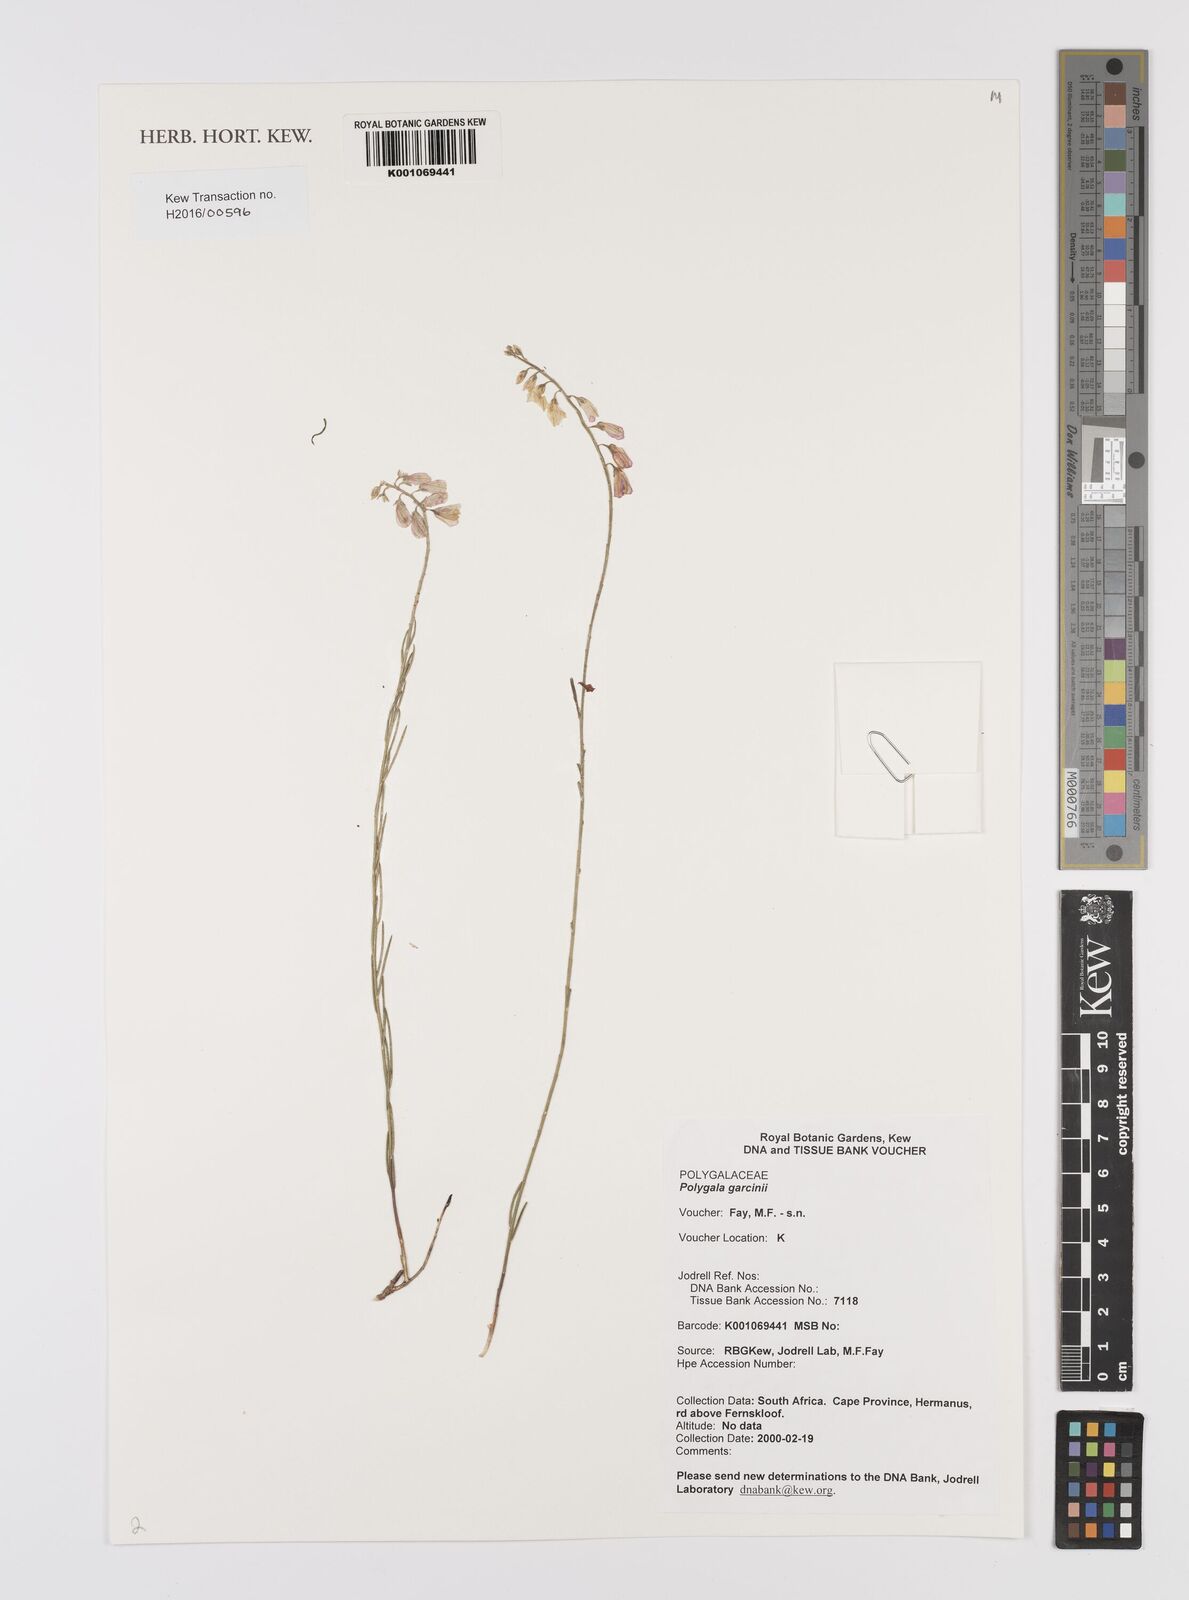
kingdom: Plantae
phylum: Tracheophyta
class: Magnoliopsida
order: Fabales
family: Polygalaceae
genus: Polygala
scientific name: Polygala garcini
